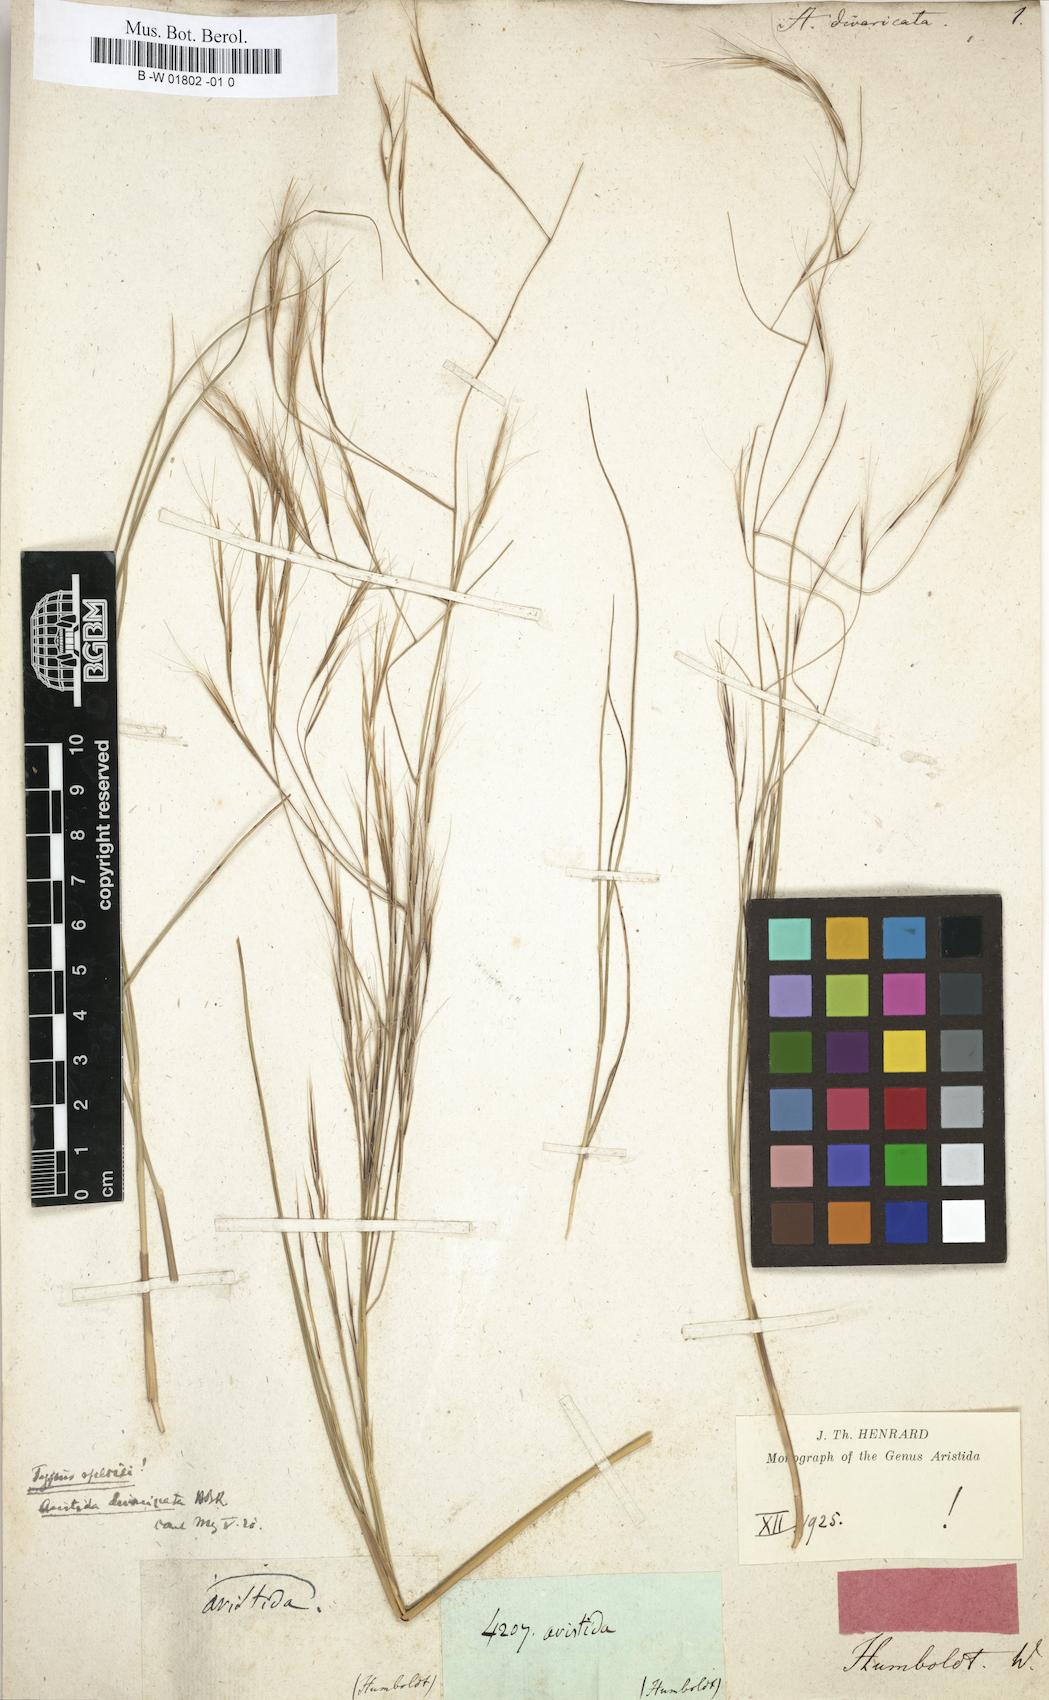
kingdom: Plantae
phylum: Tracheophyta
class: Liliopsida
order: Poales
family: Poaceae
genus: Aristida
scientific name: Aristida divaricata
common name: Poverty grass
